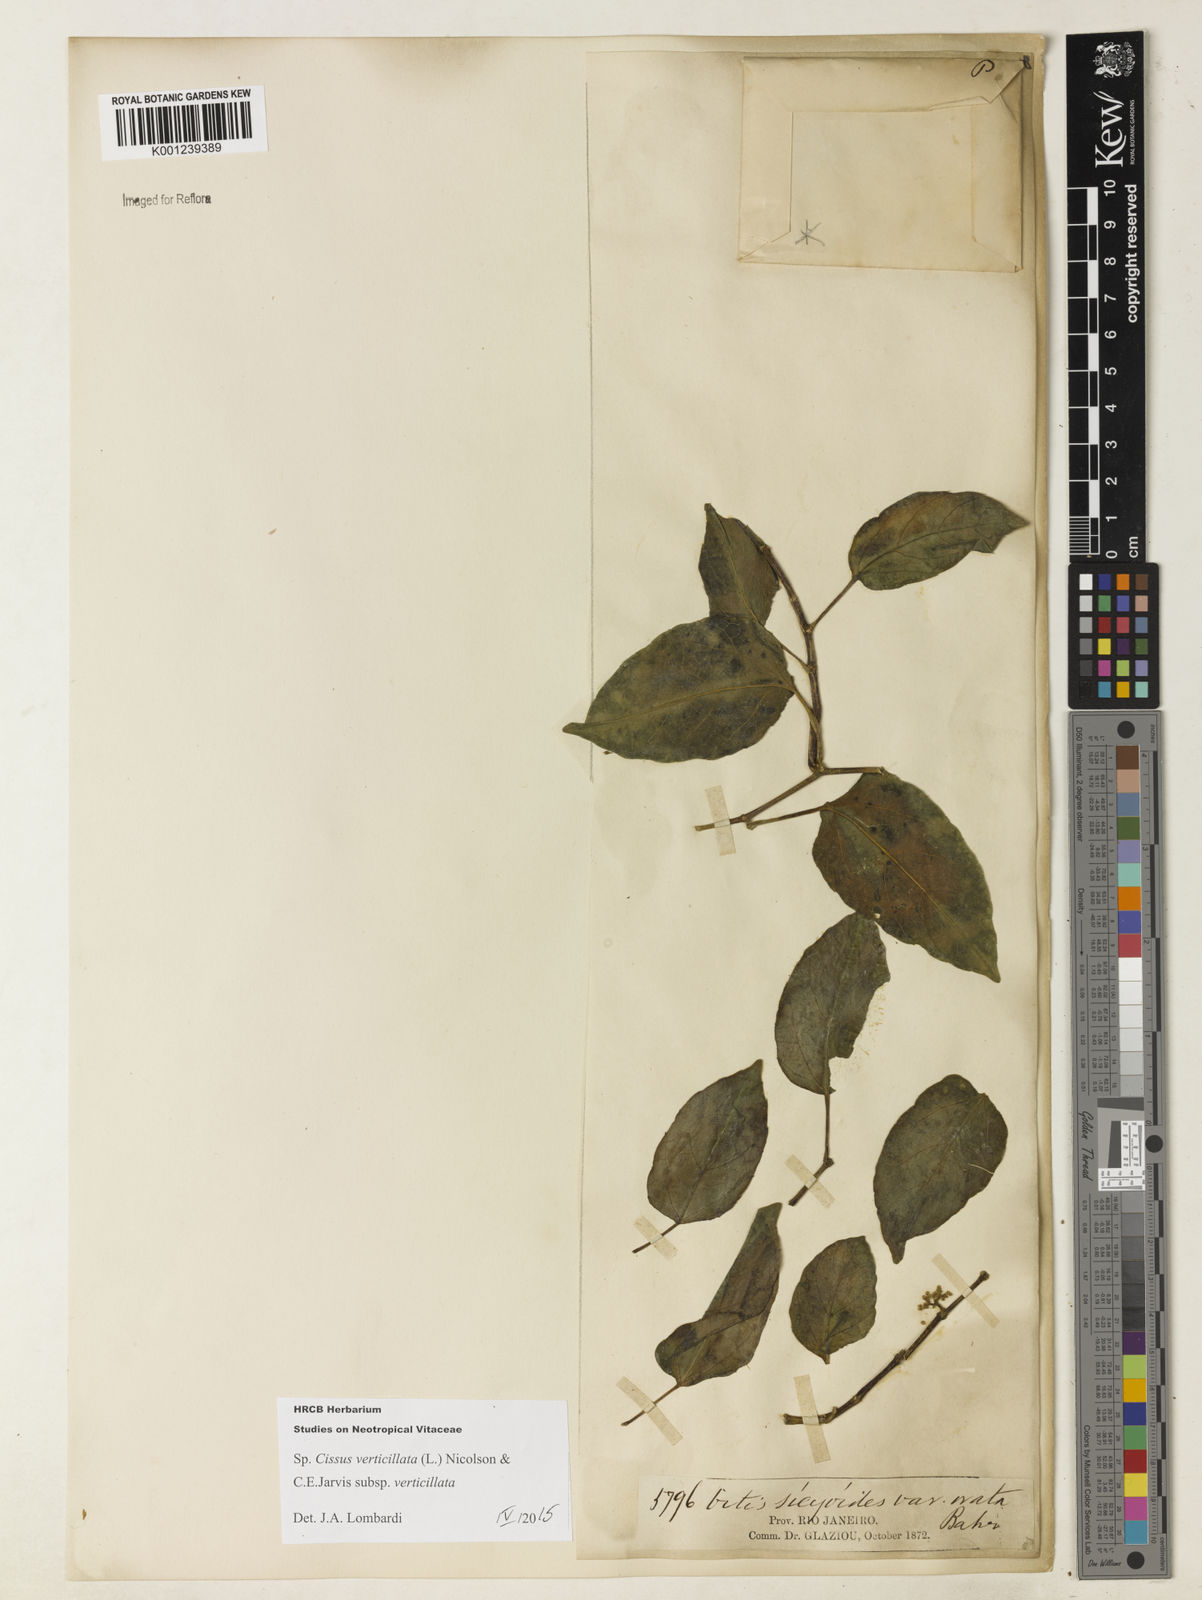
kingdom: Plantae
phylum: Tracheophyta
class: Magnoliopsida
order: Vitales
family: Vitaceae
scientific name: Vitaceae
